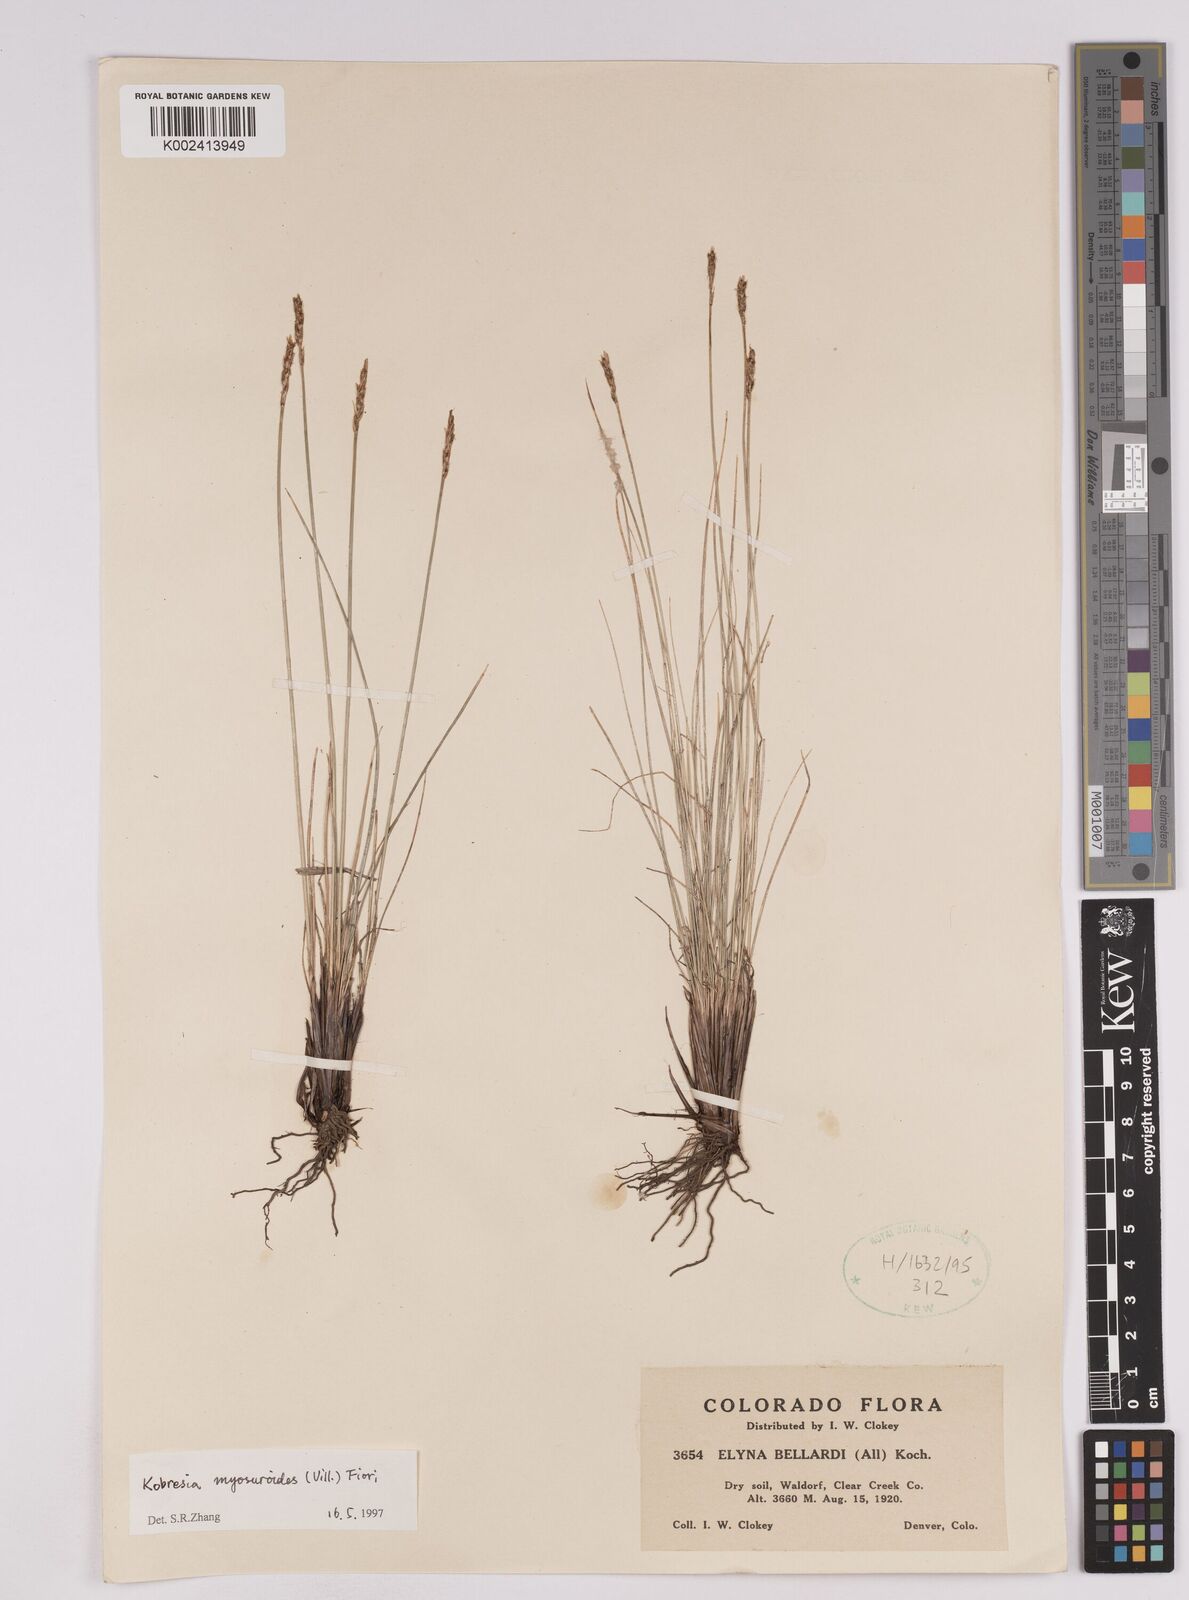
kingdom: Plantae
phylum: Tracheophyta
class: Liliopsida
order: Poales
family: Cyperaceae
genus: Carex
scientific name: Carex myosuroides
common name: Bellard's bog sedge
